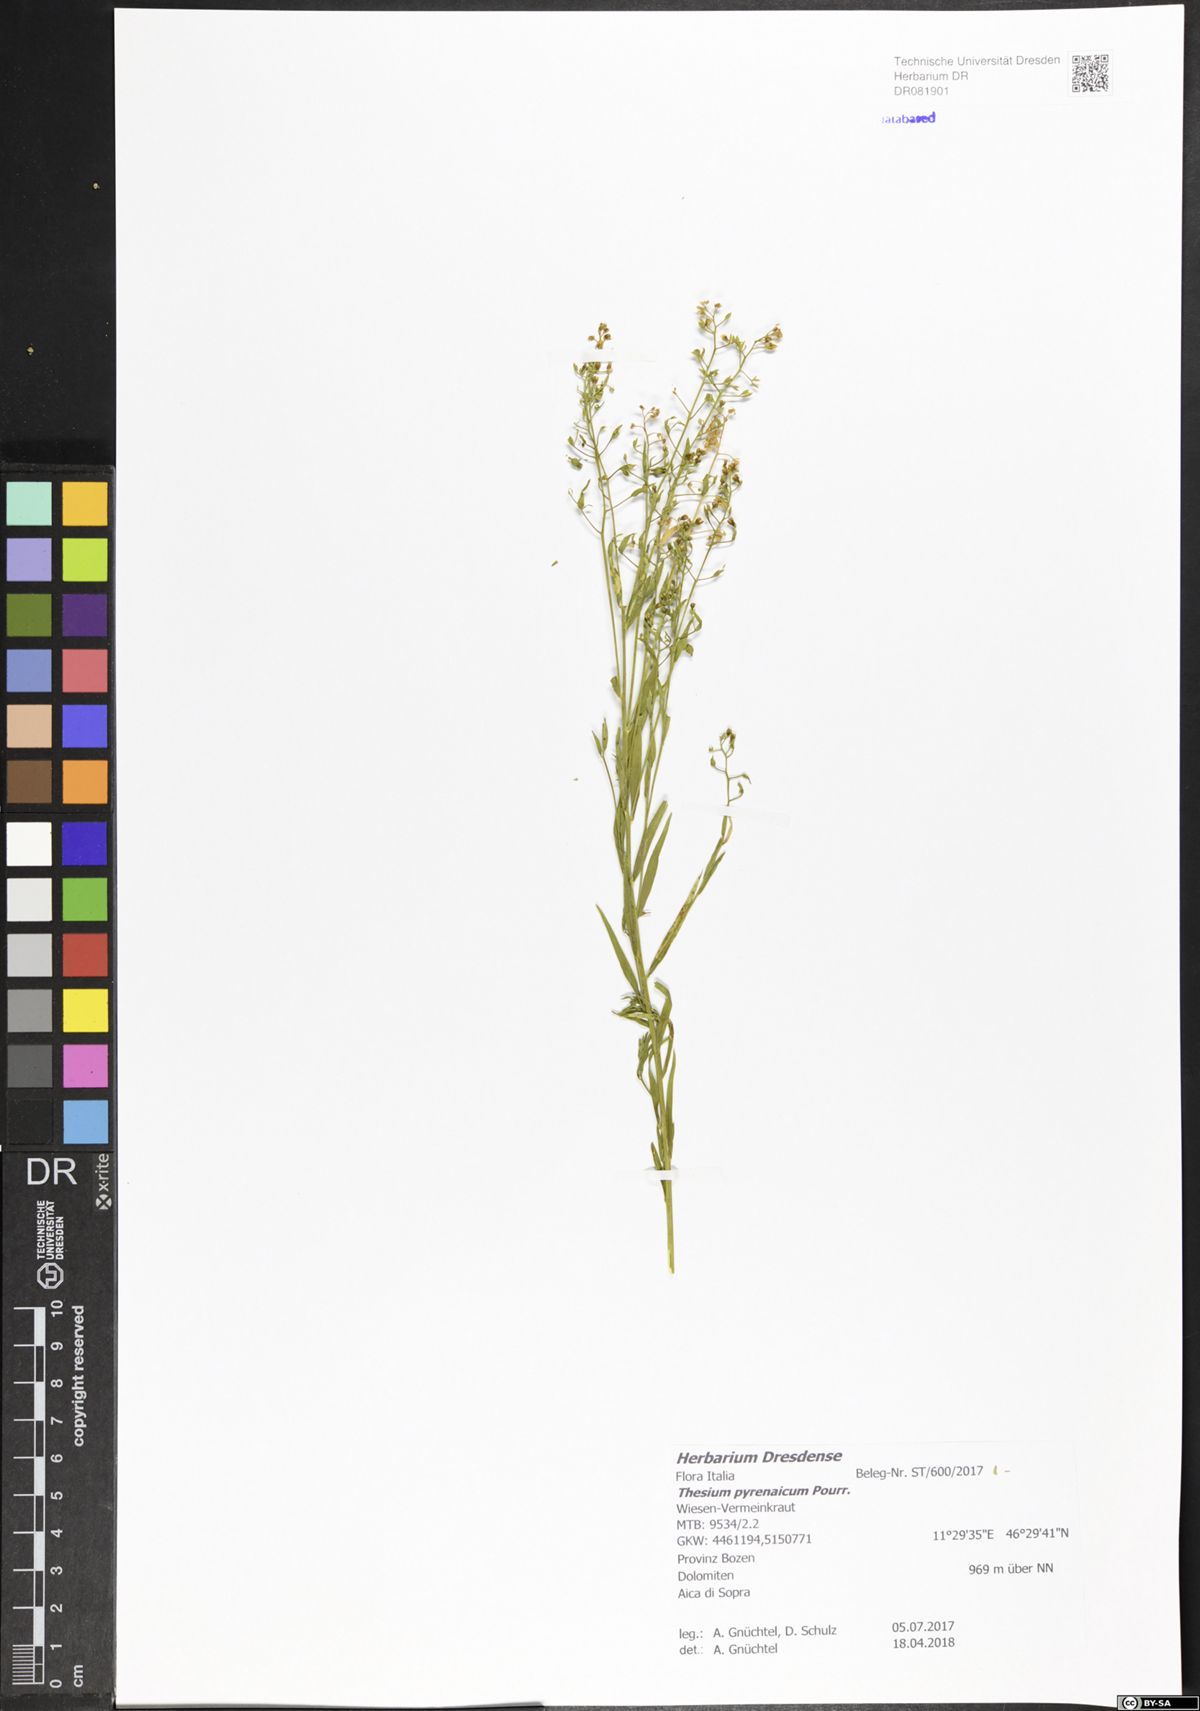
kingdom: Plantae
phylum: Tracheophyta
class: Magnoliopsida
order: Santalales
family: Thesiaceae
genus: Thesium
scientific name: Thesium pyrenaicum
